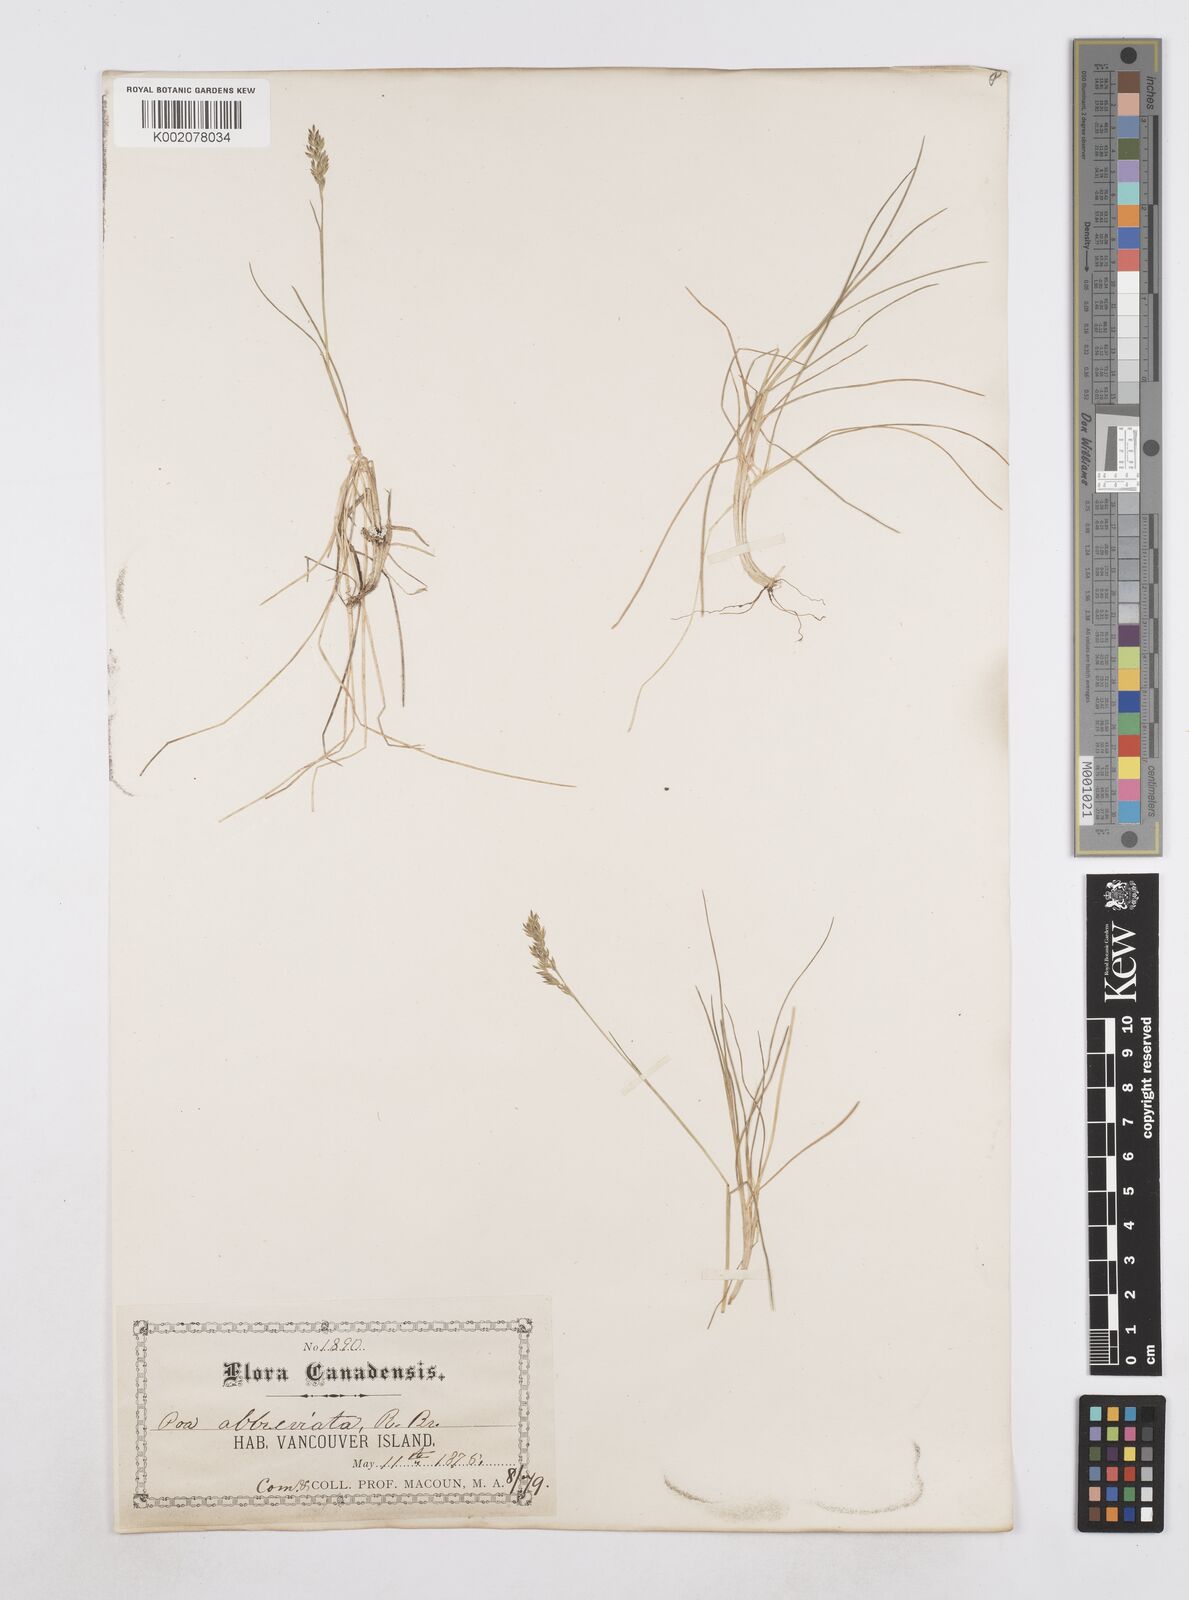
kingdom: Plantae
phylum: Tracheophyta
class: Liliopsida
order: Poales
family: Poaceae
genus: Poa
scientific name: Poa
